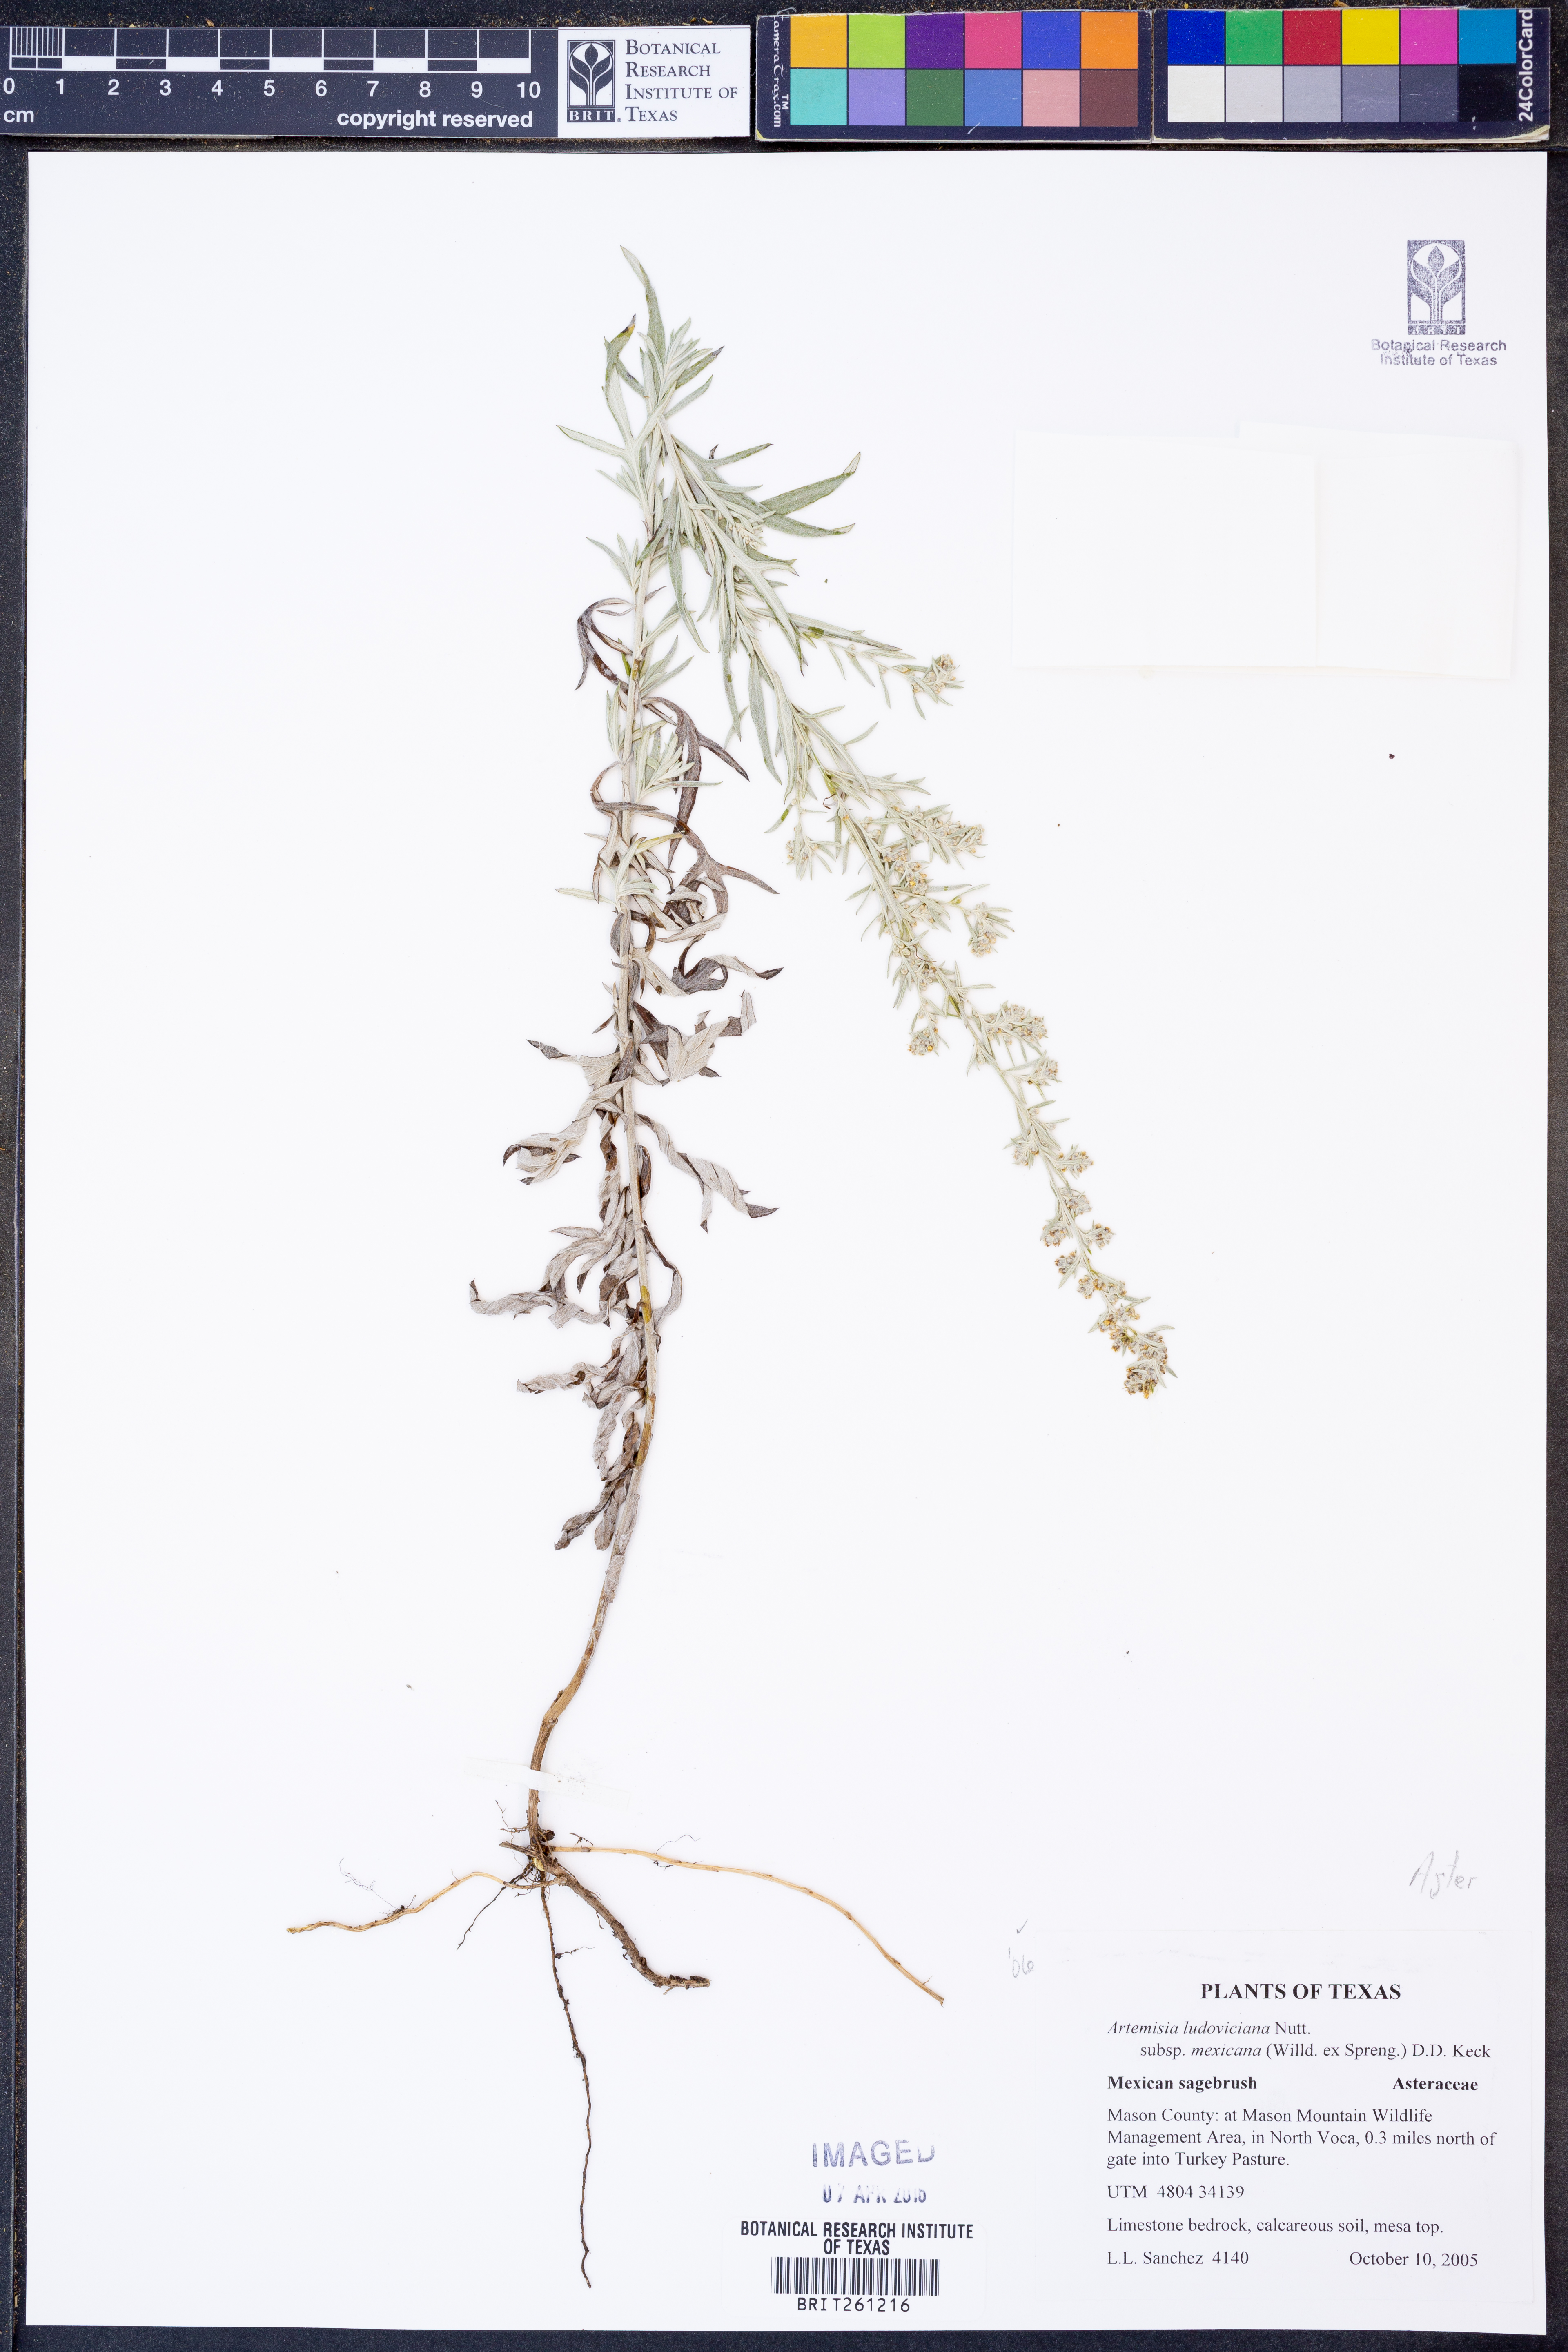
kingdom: Plantae
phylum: Tracheophyta
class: Magnoliopsida
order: Asterales
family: Asteraceae
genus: Artemisia
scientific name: Artemisia ludoviciana
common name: Western mugwort
